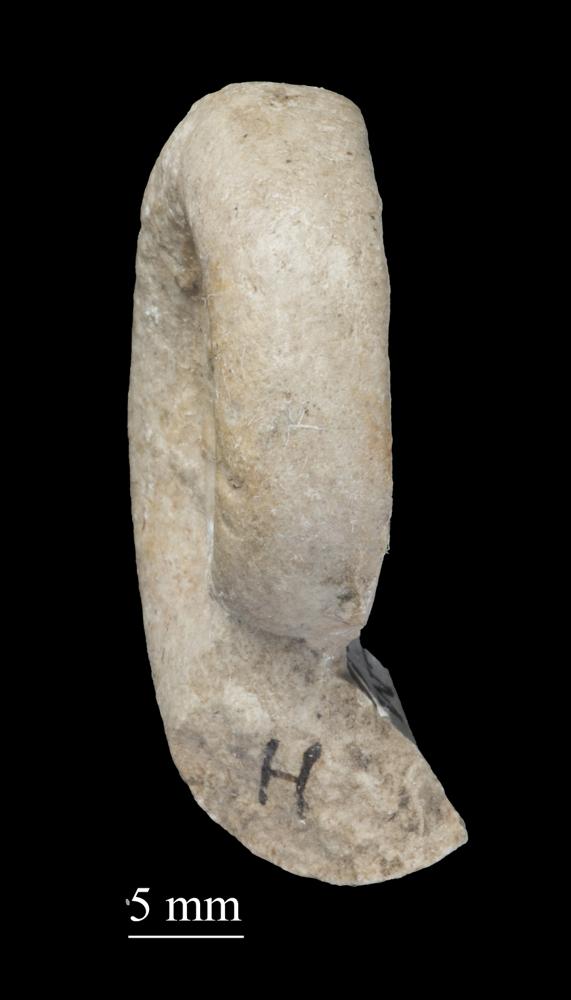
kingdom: Animalia
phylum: Mollusca
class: Gastropoda
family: Lesueurillidae
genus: Mestoronema
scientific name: Mestoronema Euomphalus marginalis
